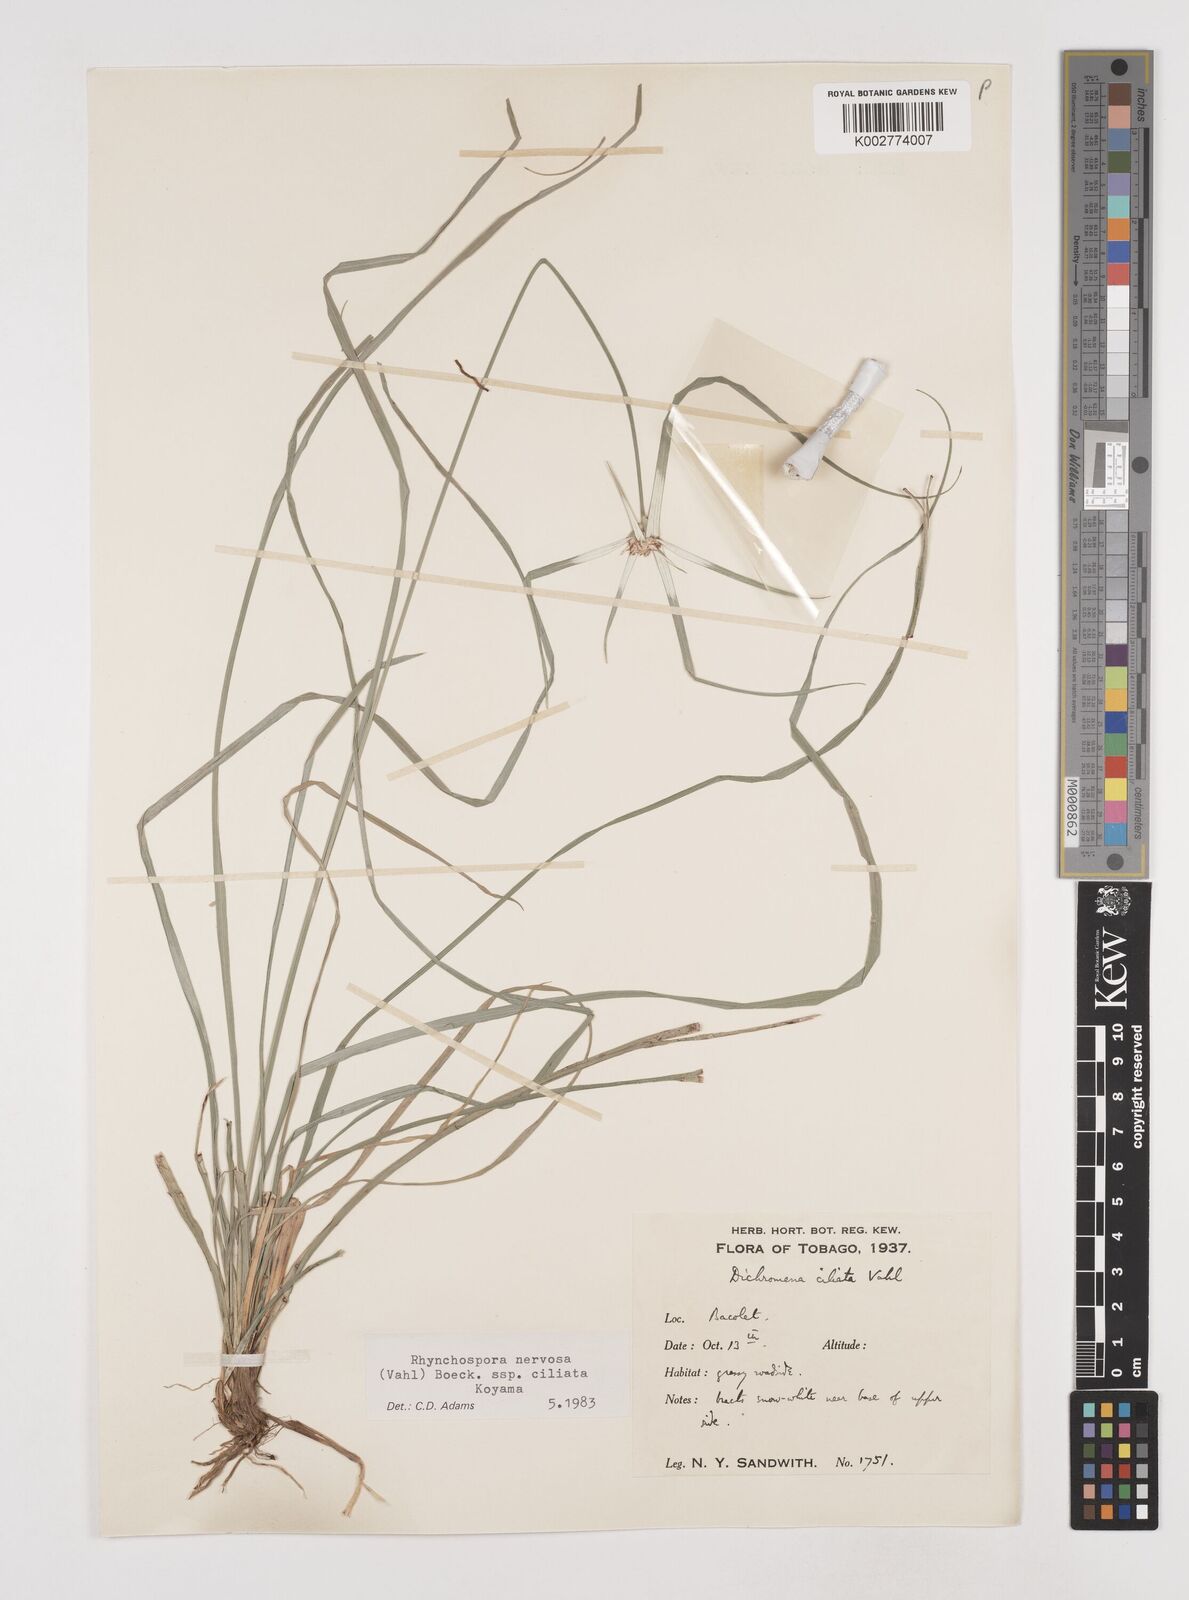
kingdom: Plantae
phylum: Tracheophyta
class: Liliopsida
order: Poales
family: Cyperaceae
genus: Rhynchospora
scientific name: Rhynchospora pura
